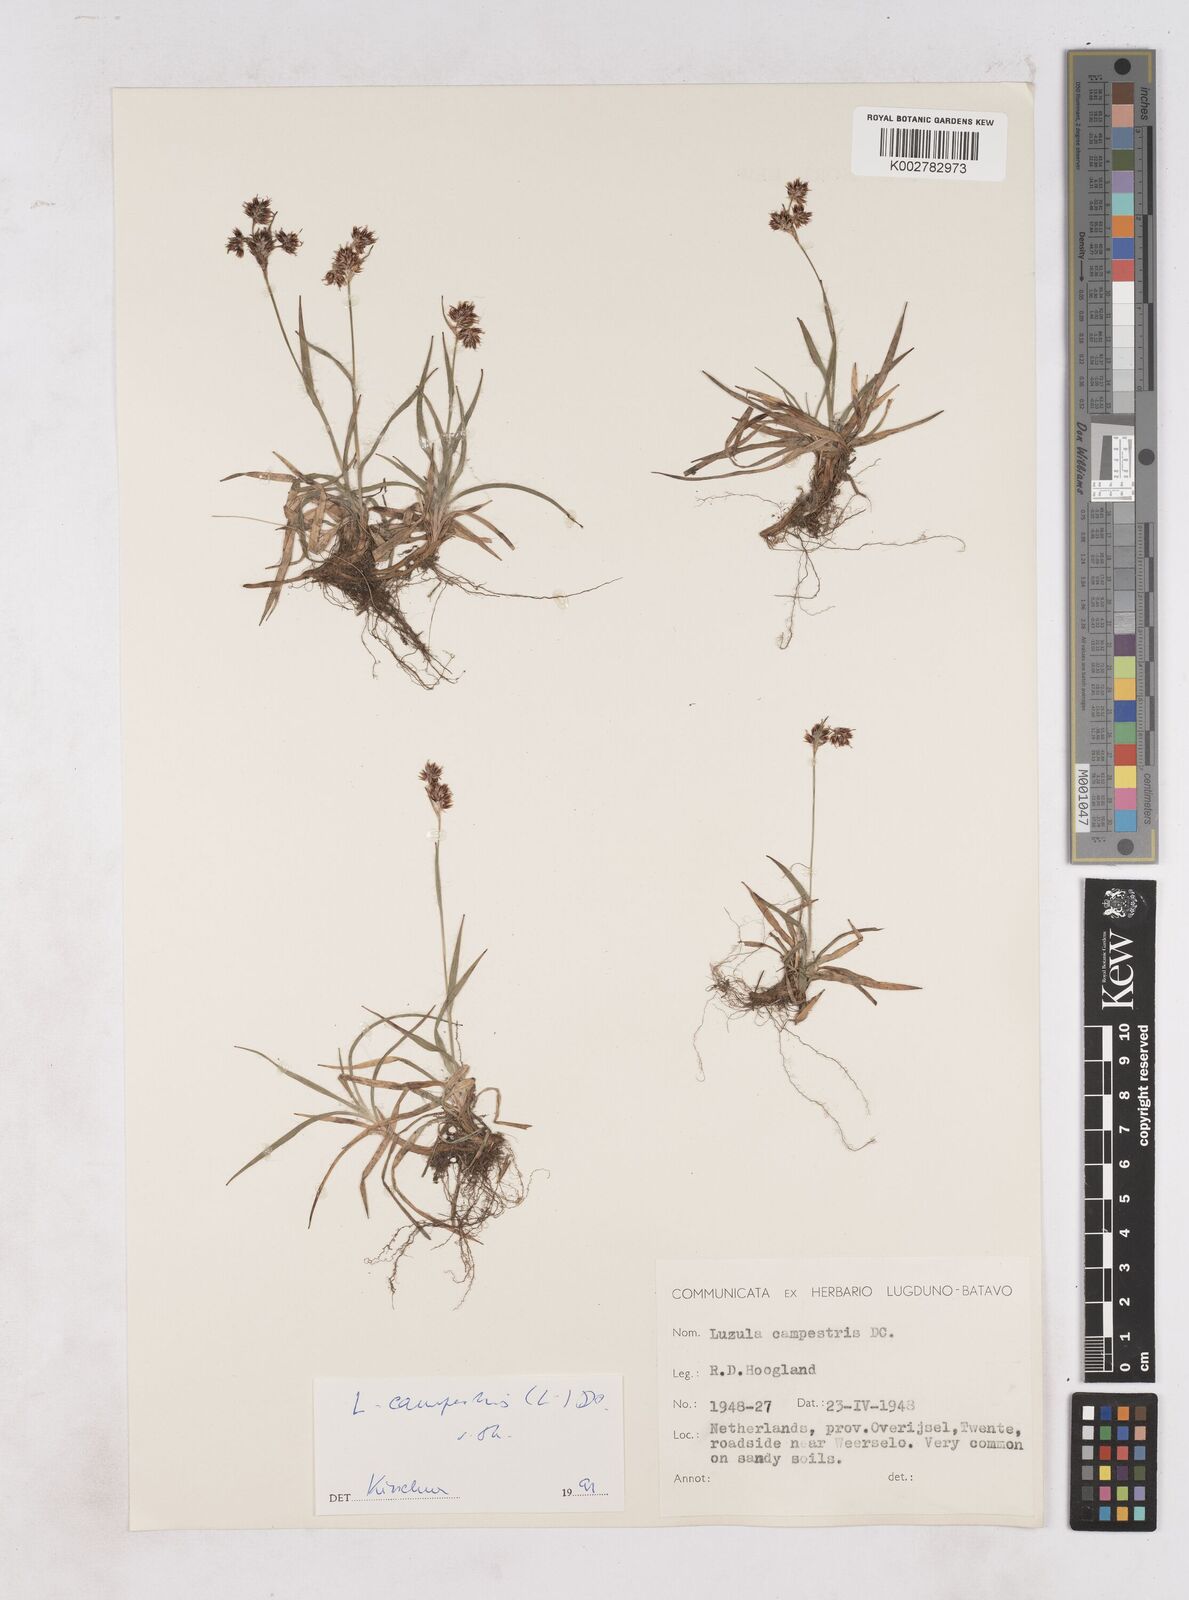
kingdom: Plantae
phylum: Tracheophyta
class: Liliopsida
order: Poales
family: Juncaceae
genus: Luzula
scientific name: Luzula campestris
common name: Field wood-rush
